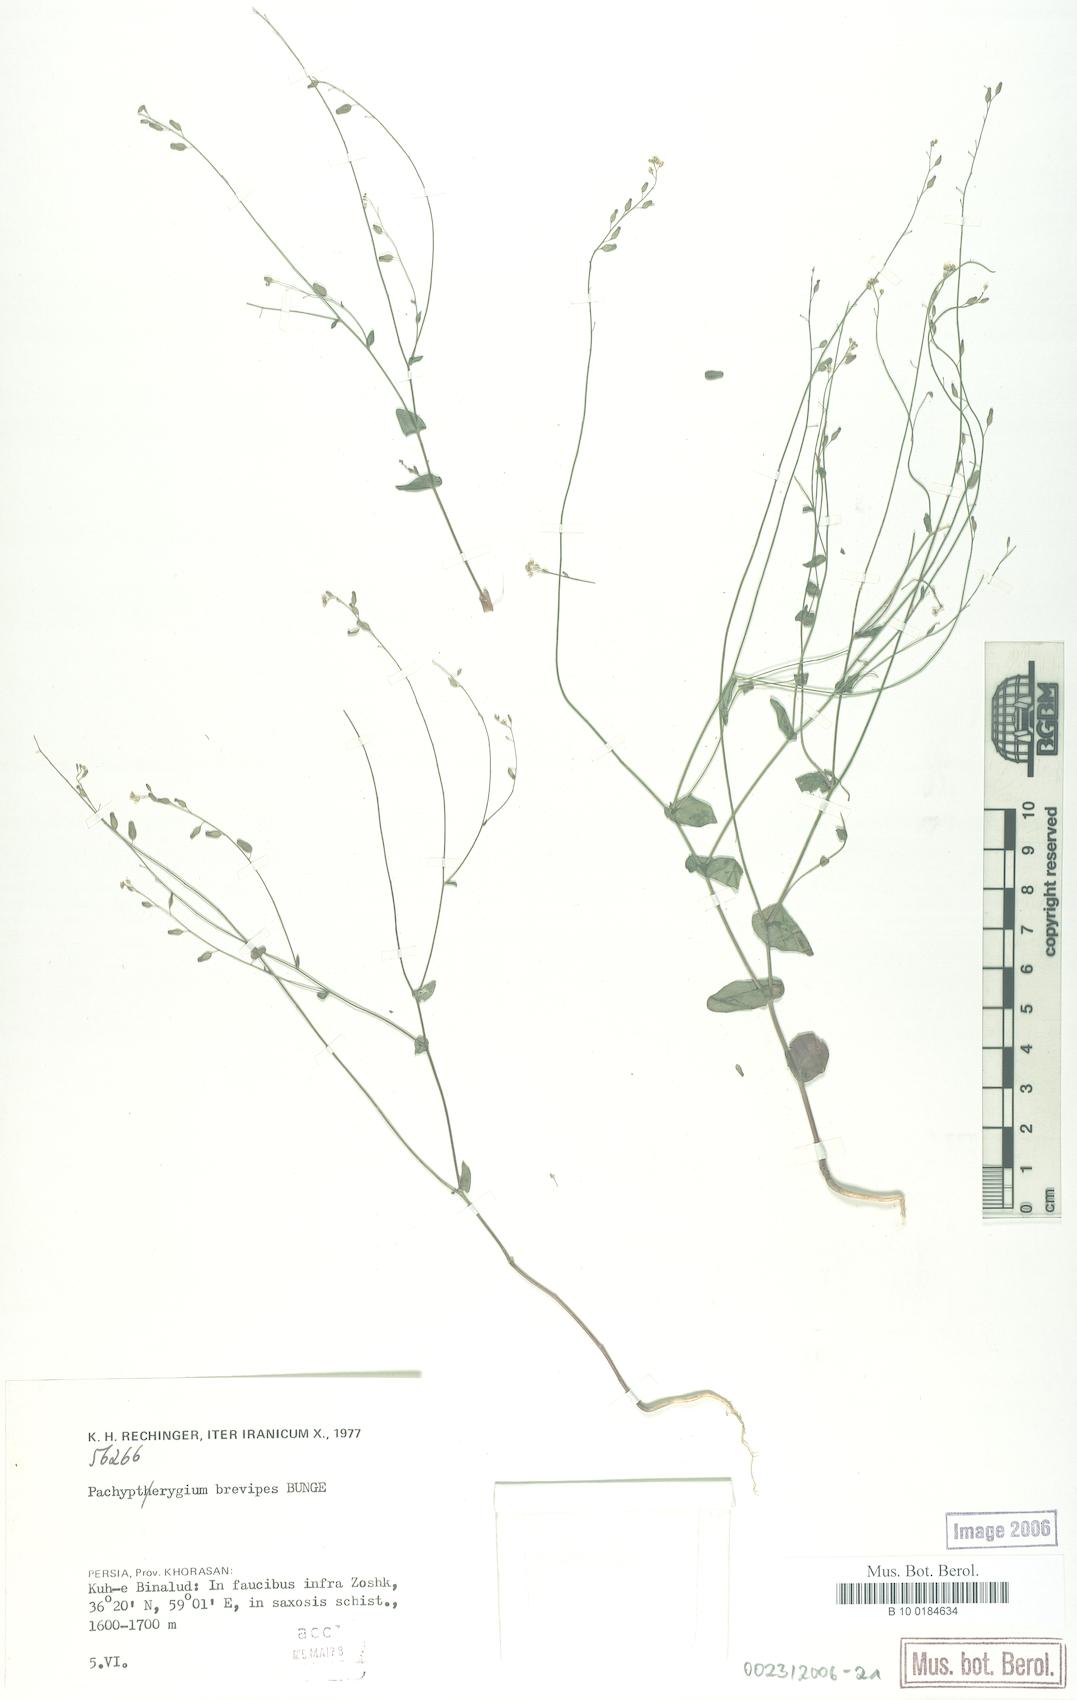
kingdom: Plantae
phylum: Tracheophyta
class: Magnoliopsida
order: Brassicales
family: Brassicaceae
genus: Isatis
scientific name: Isatis brevipes
